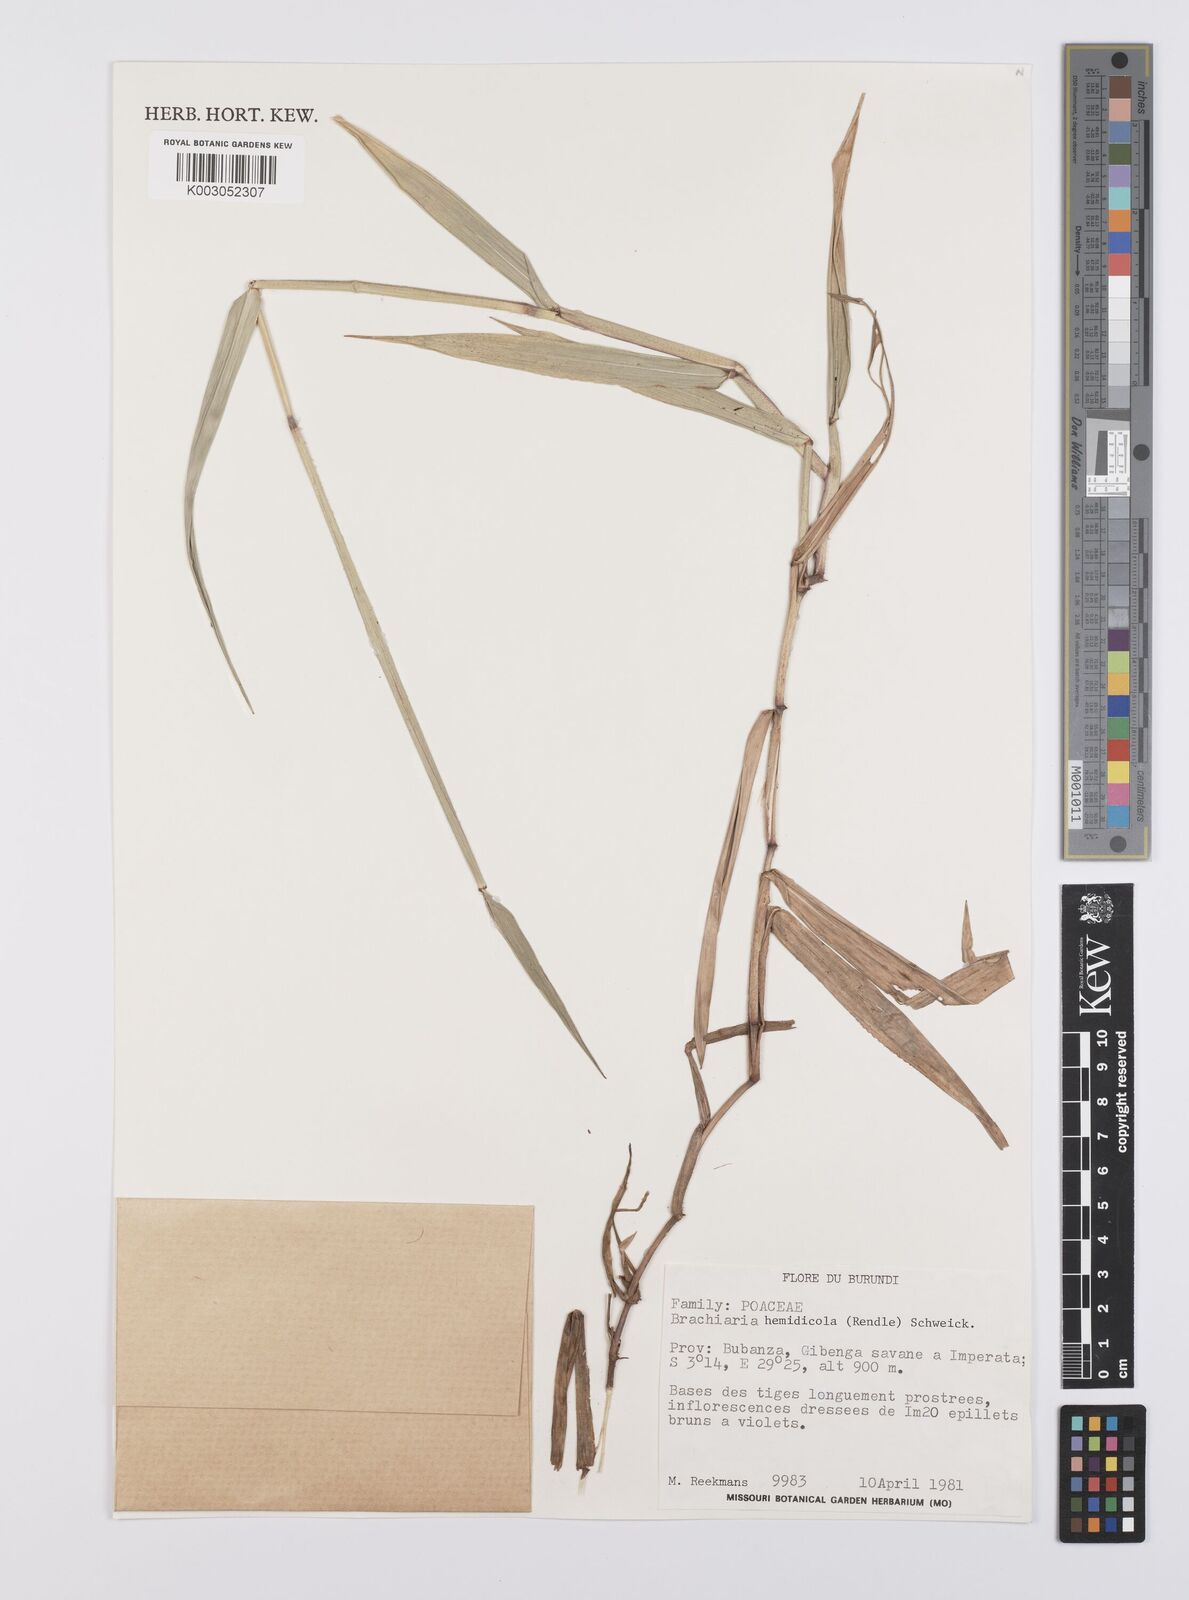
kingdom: Plantae
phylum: Tracheophyta
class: Liliopsida
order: Poales
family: Poaceae
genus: Urochloa
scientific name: Urochloa dictyoneura
